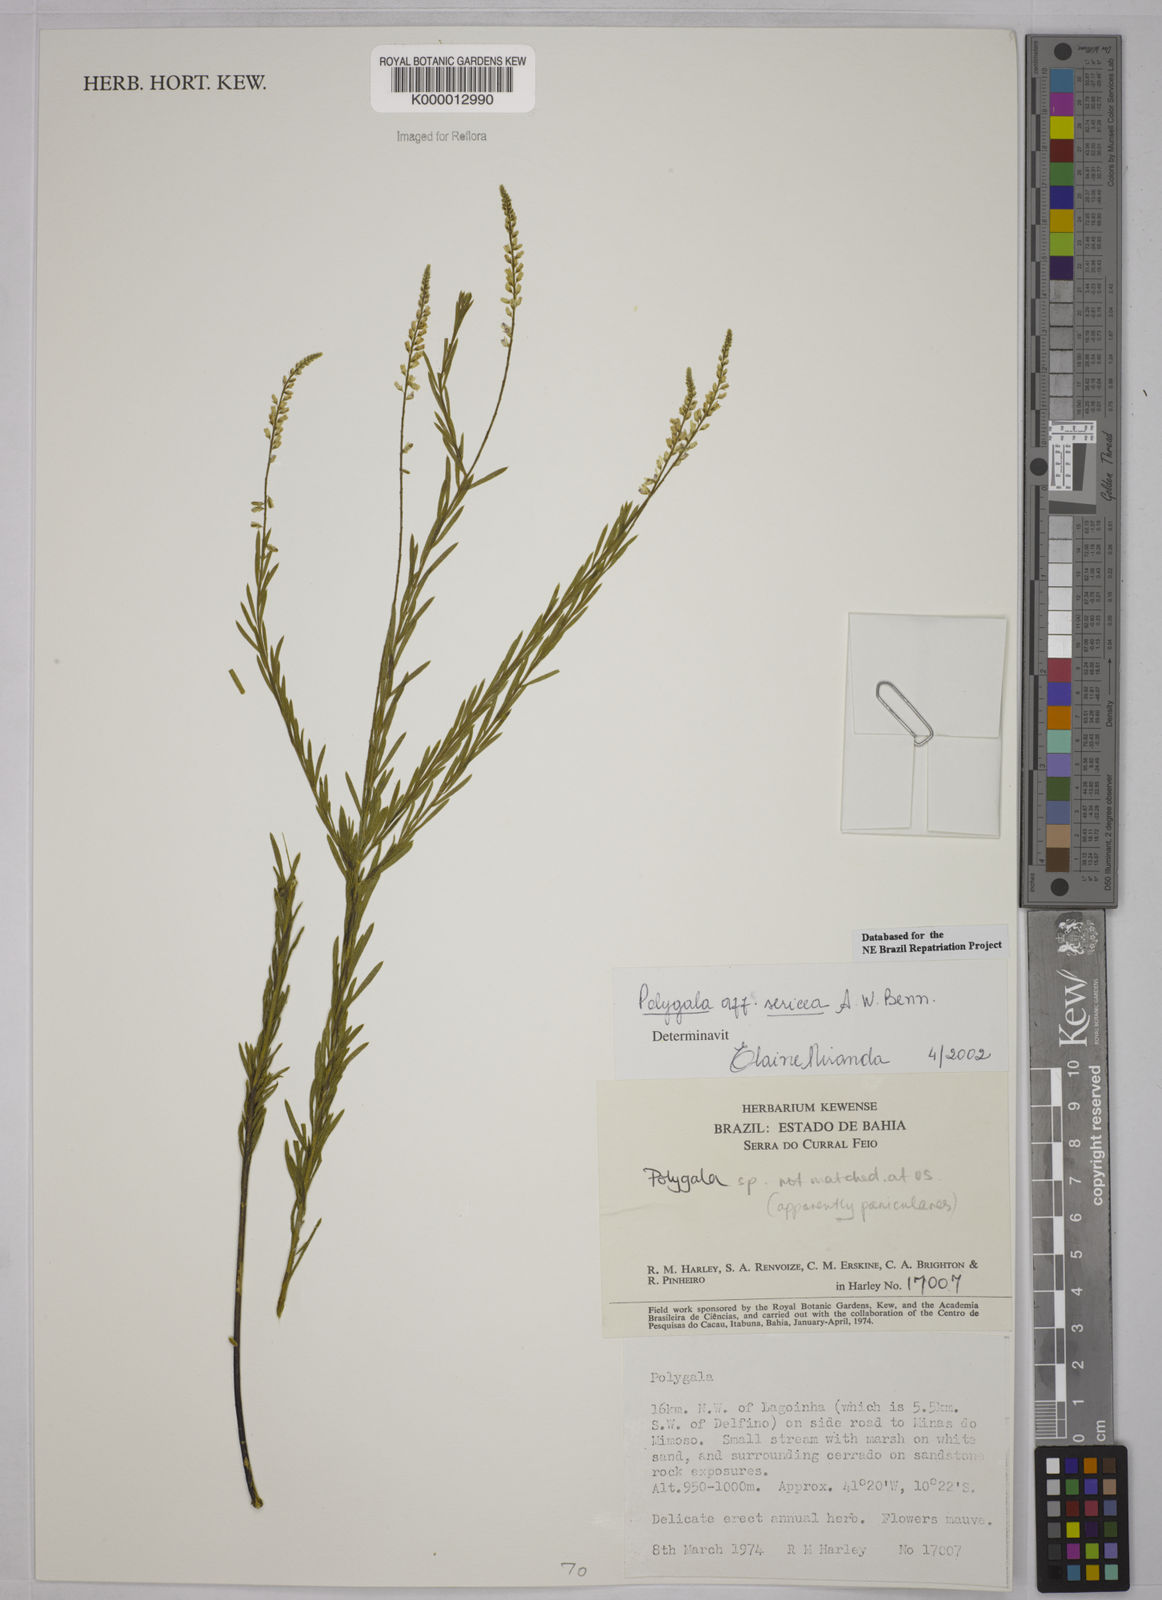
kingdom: Plantae
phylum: Tracheophyta
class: Magnoliopsida
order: Fabales
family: Polygalaceae
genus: Polygala
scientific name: Polygala sericea
